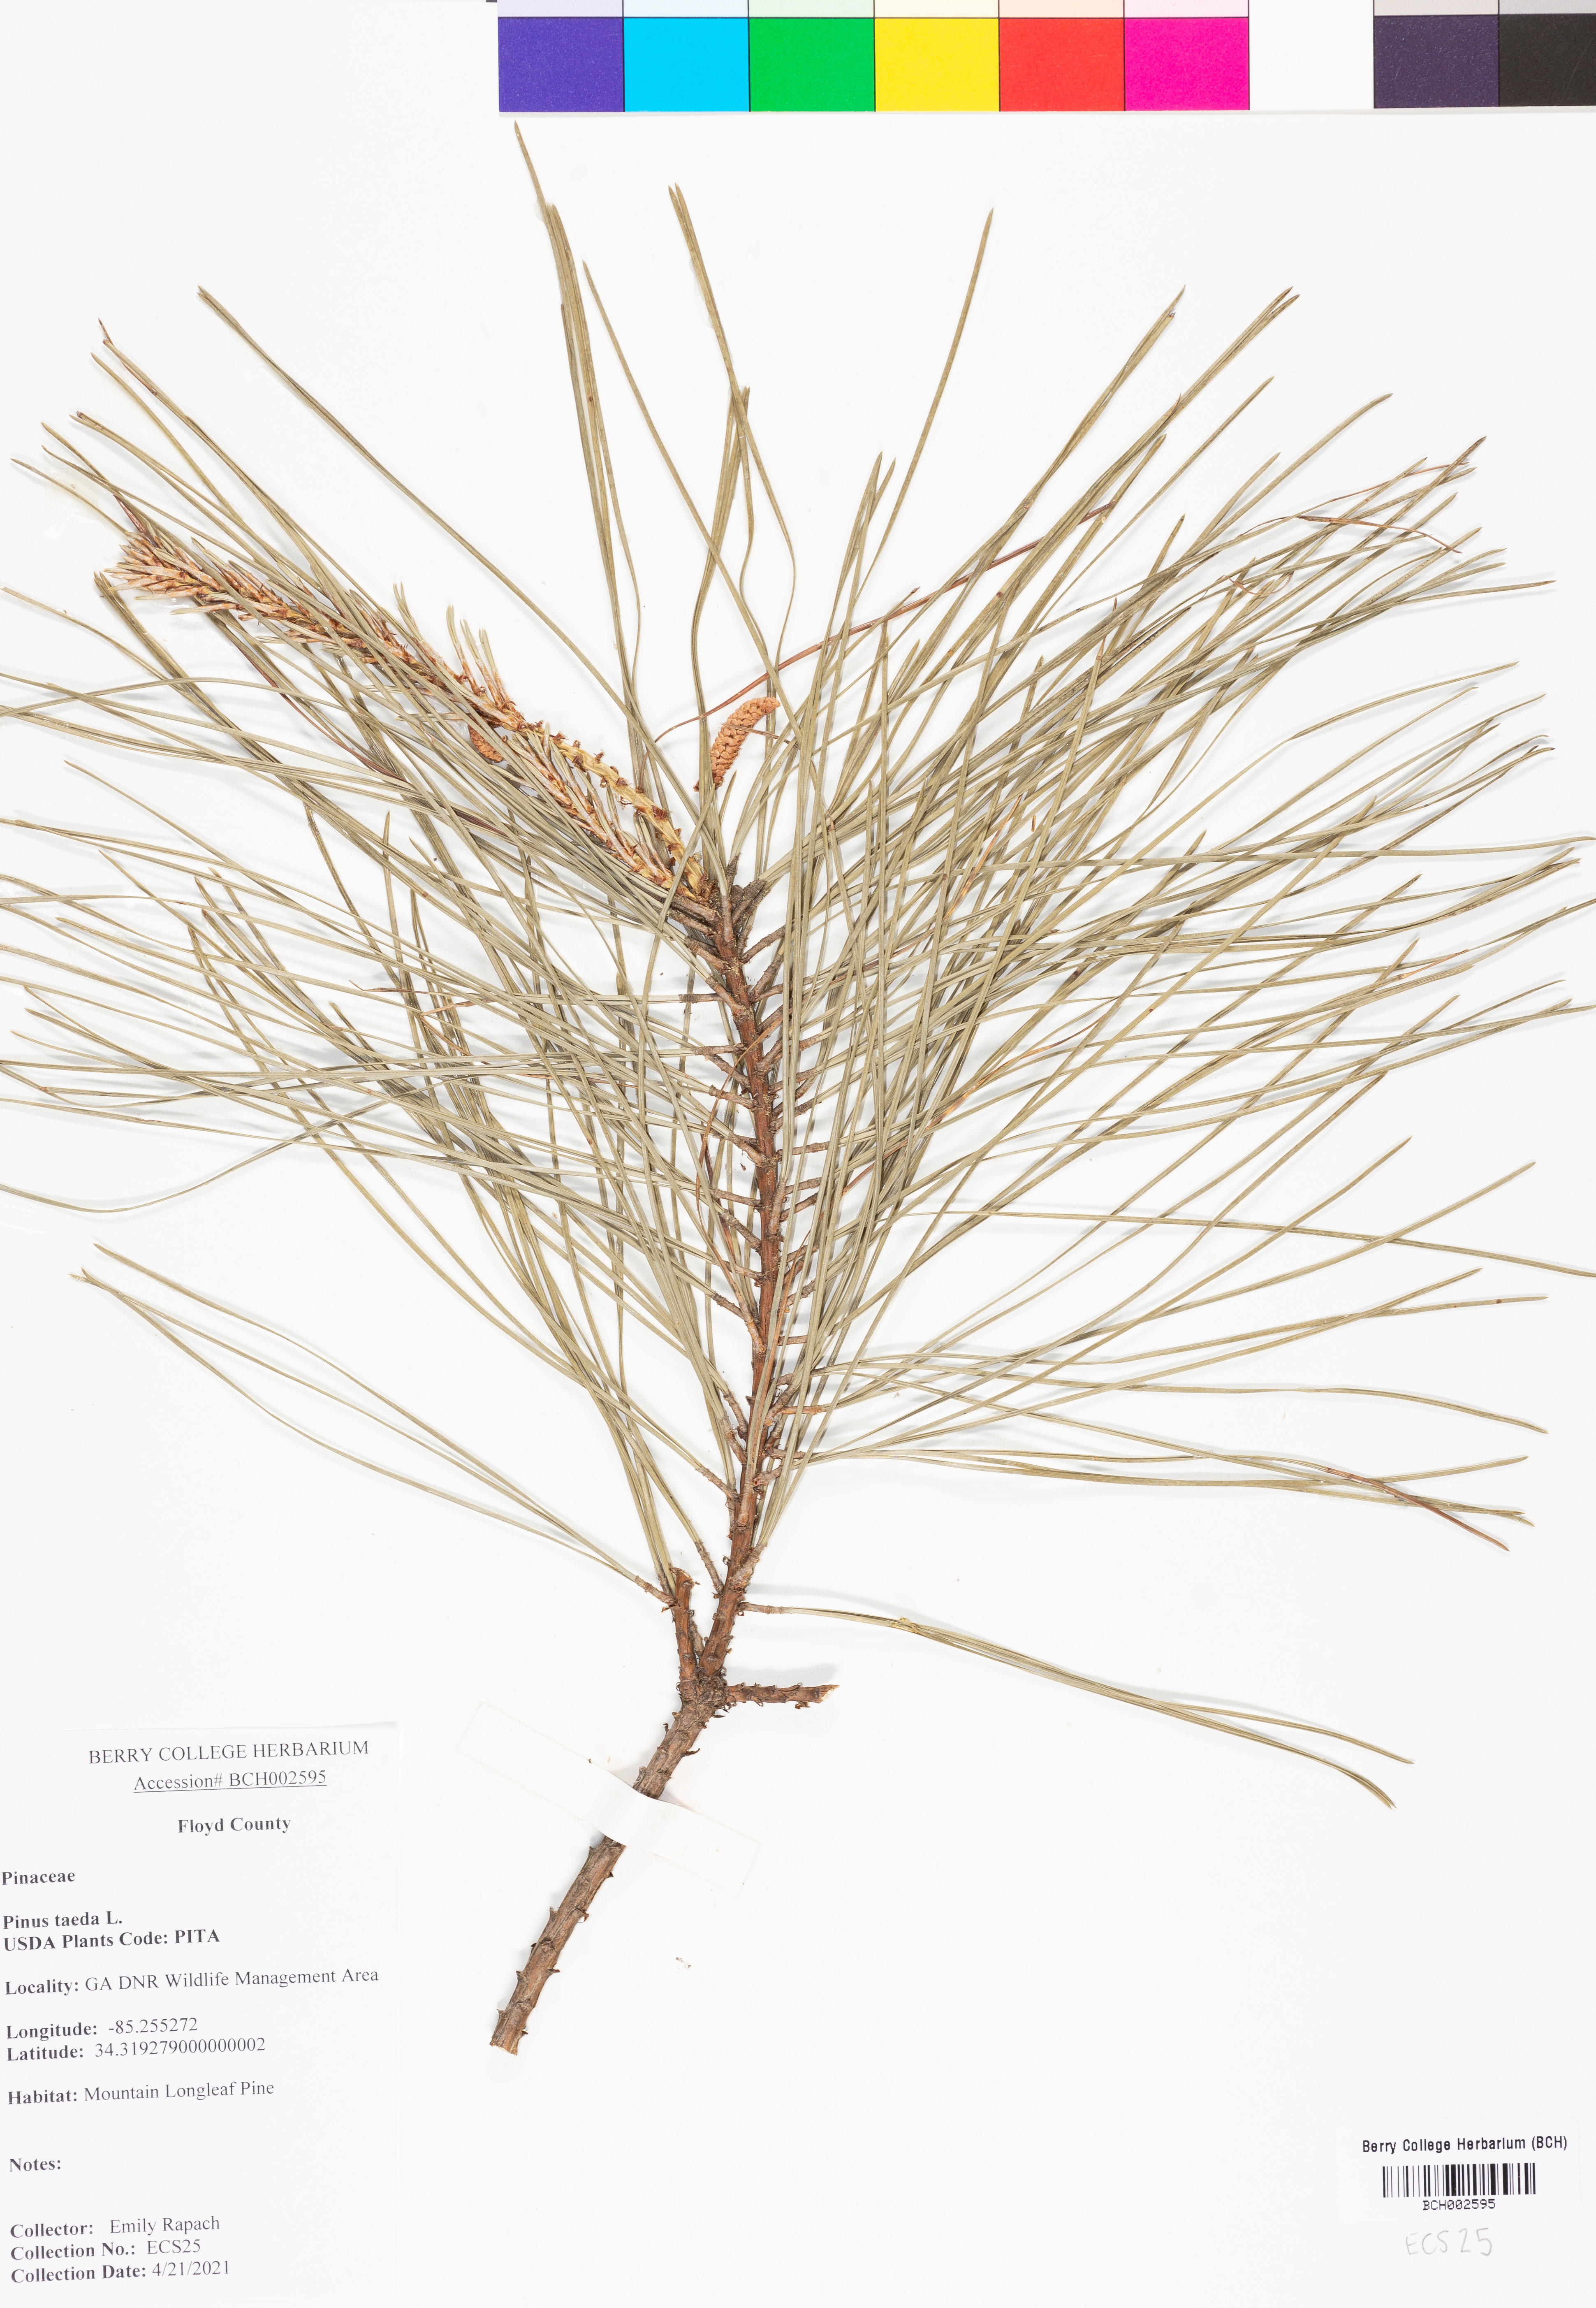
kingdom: Plantae
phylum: Tracheophyta
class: Pinopsida
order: Pinales
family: Pinaceae
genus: Pinus
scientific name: Pinus taeda
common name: Loblolly pine
